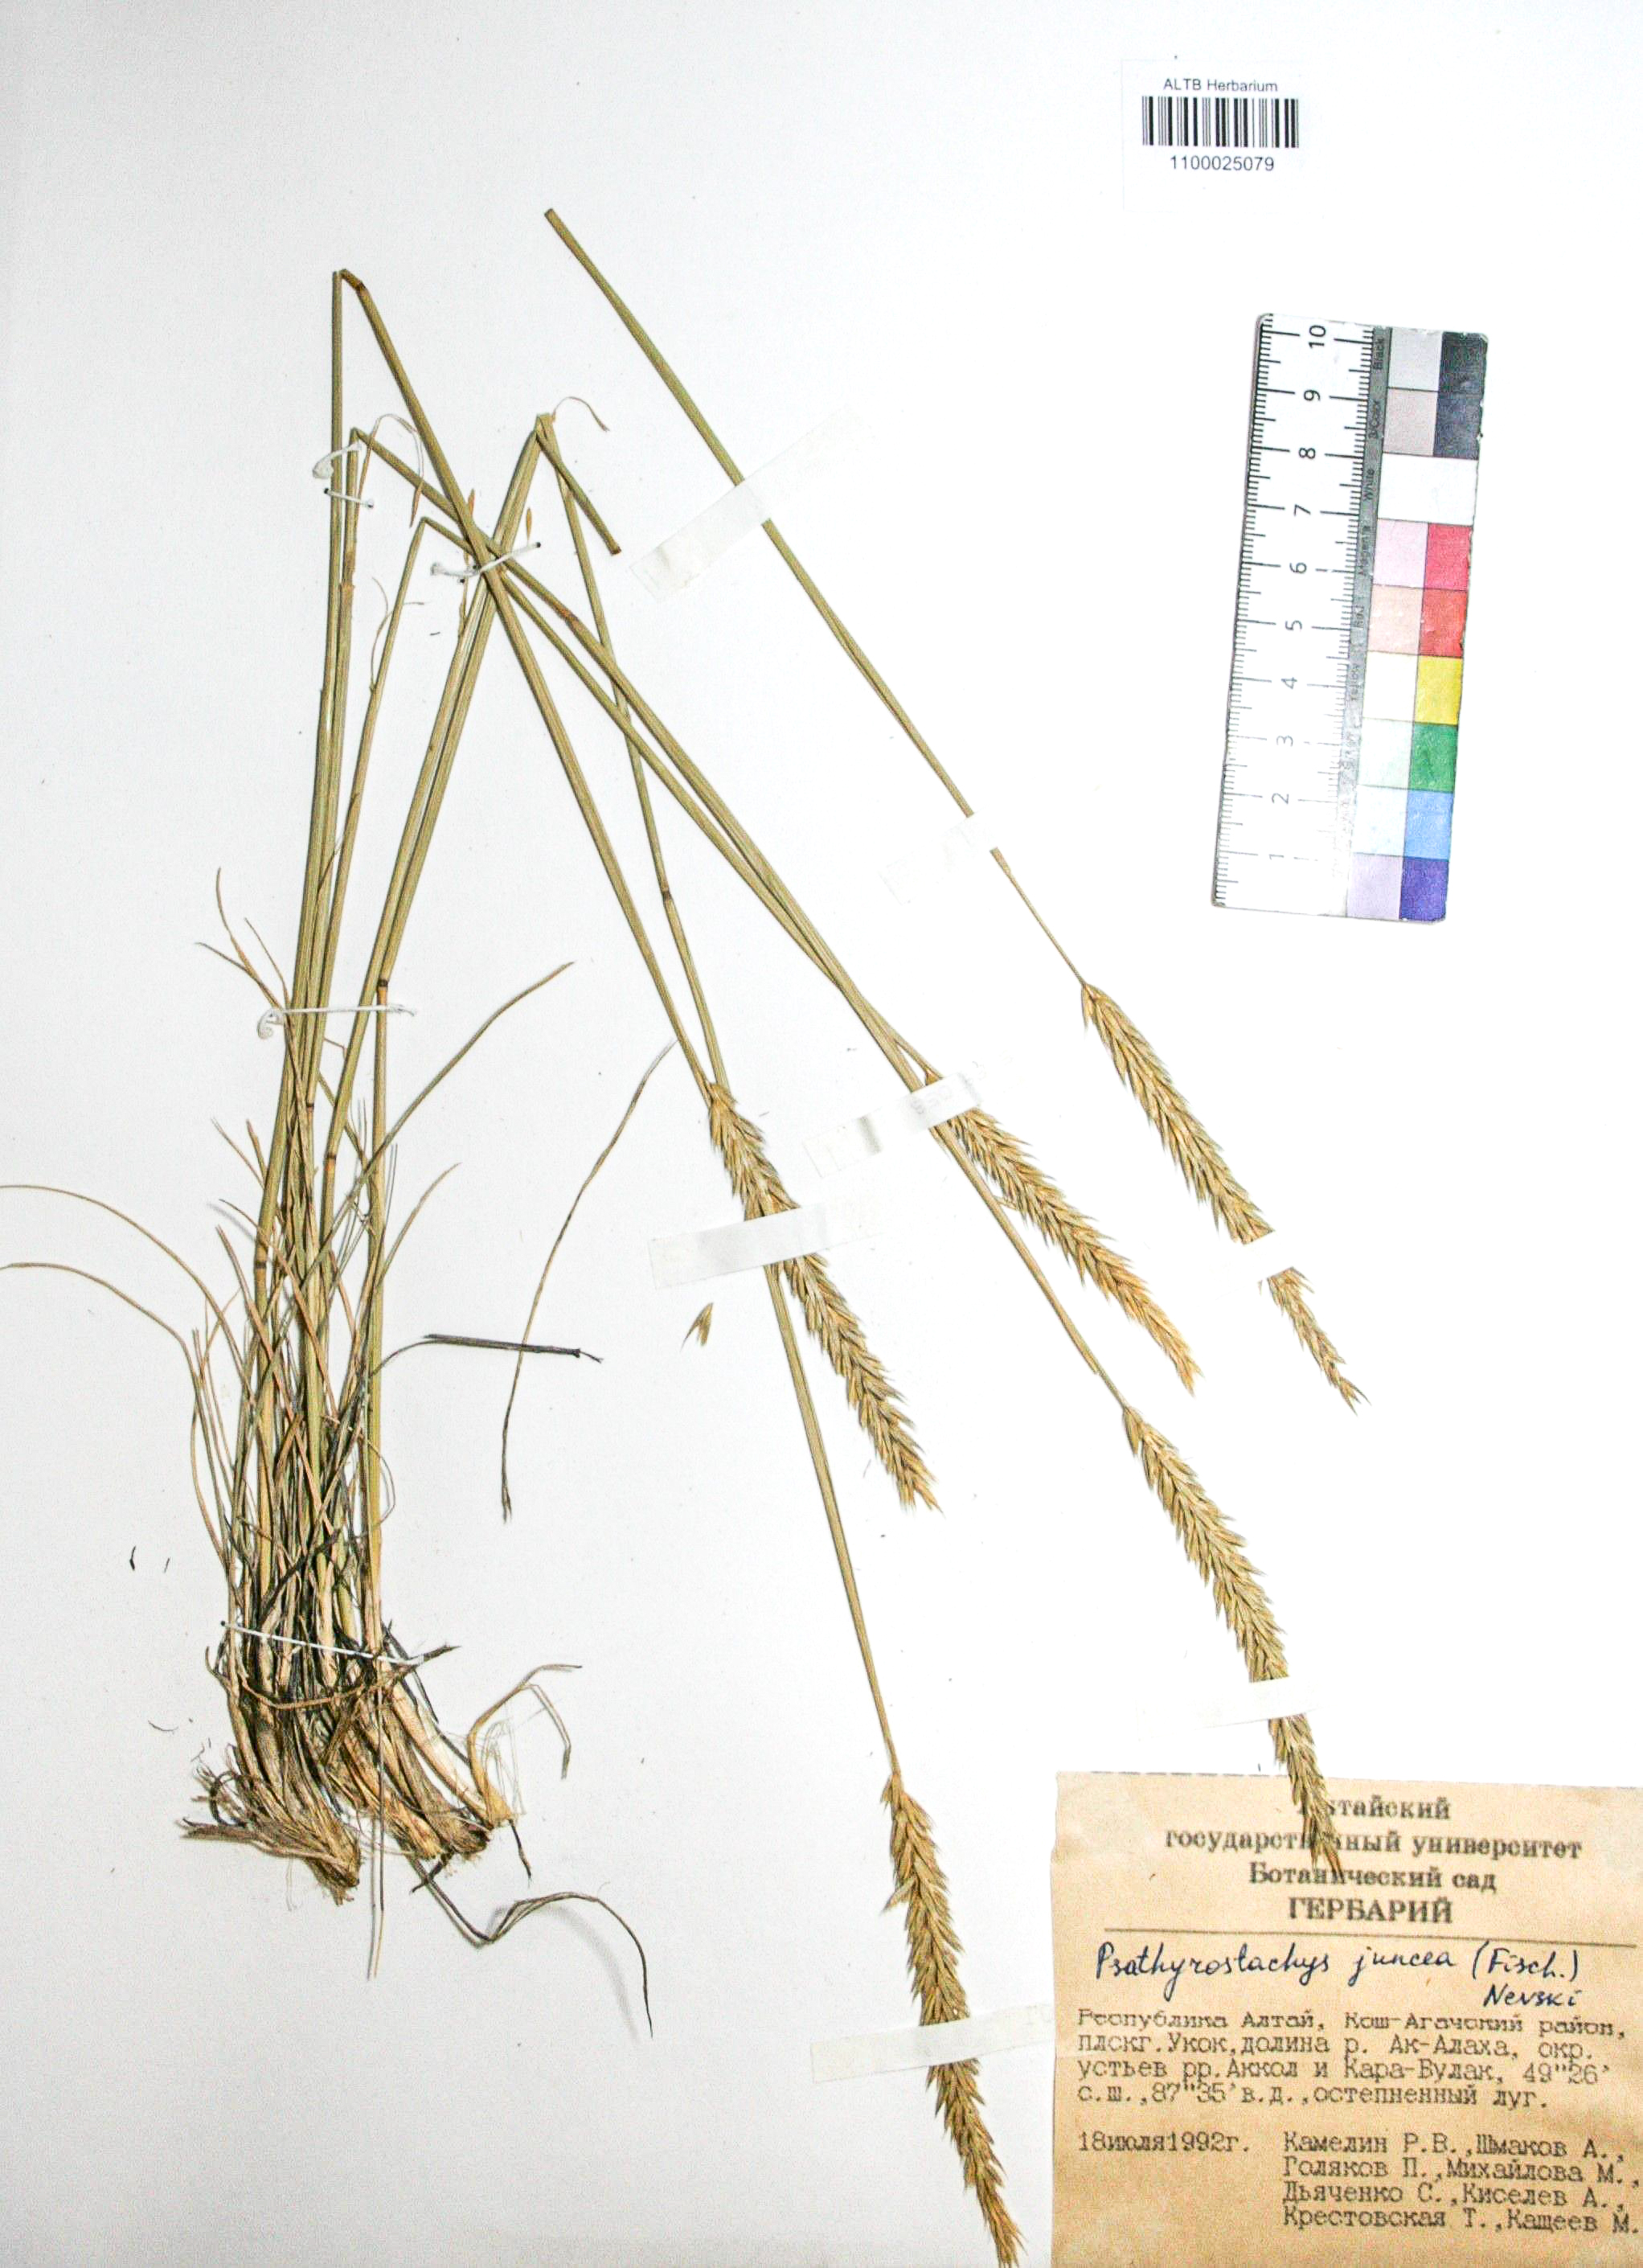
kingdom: Plantae
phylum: Tracheophyta
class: Liliopsida
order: Poales
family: Poaceae
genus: Psathyrostachys
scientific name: Psathyrostachys juncea
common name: Russian wildrye
